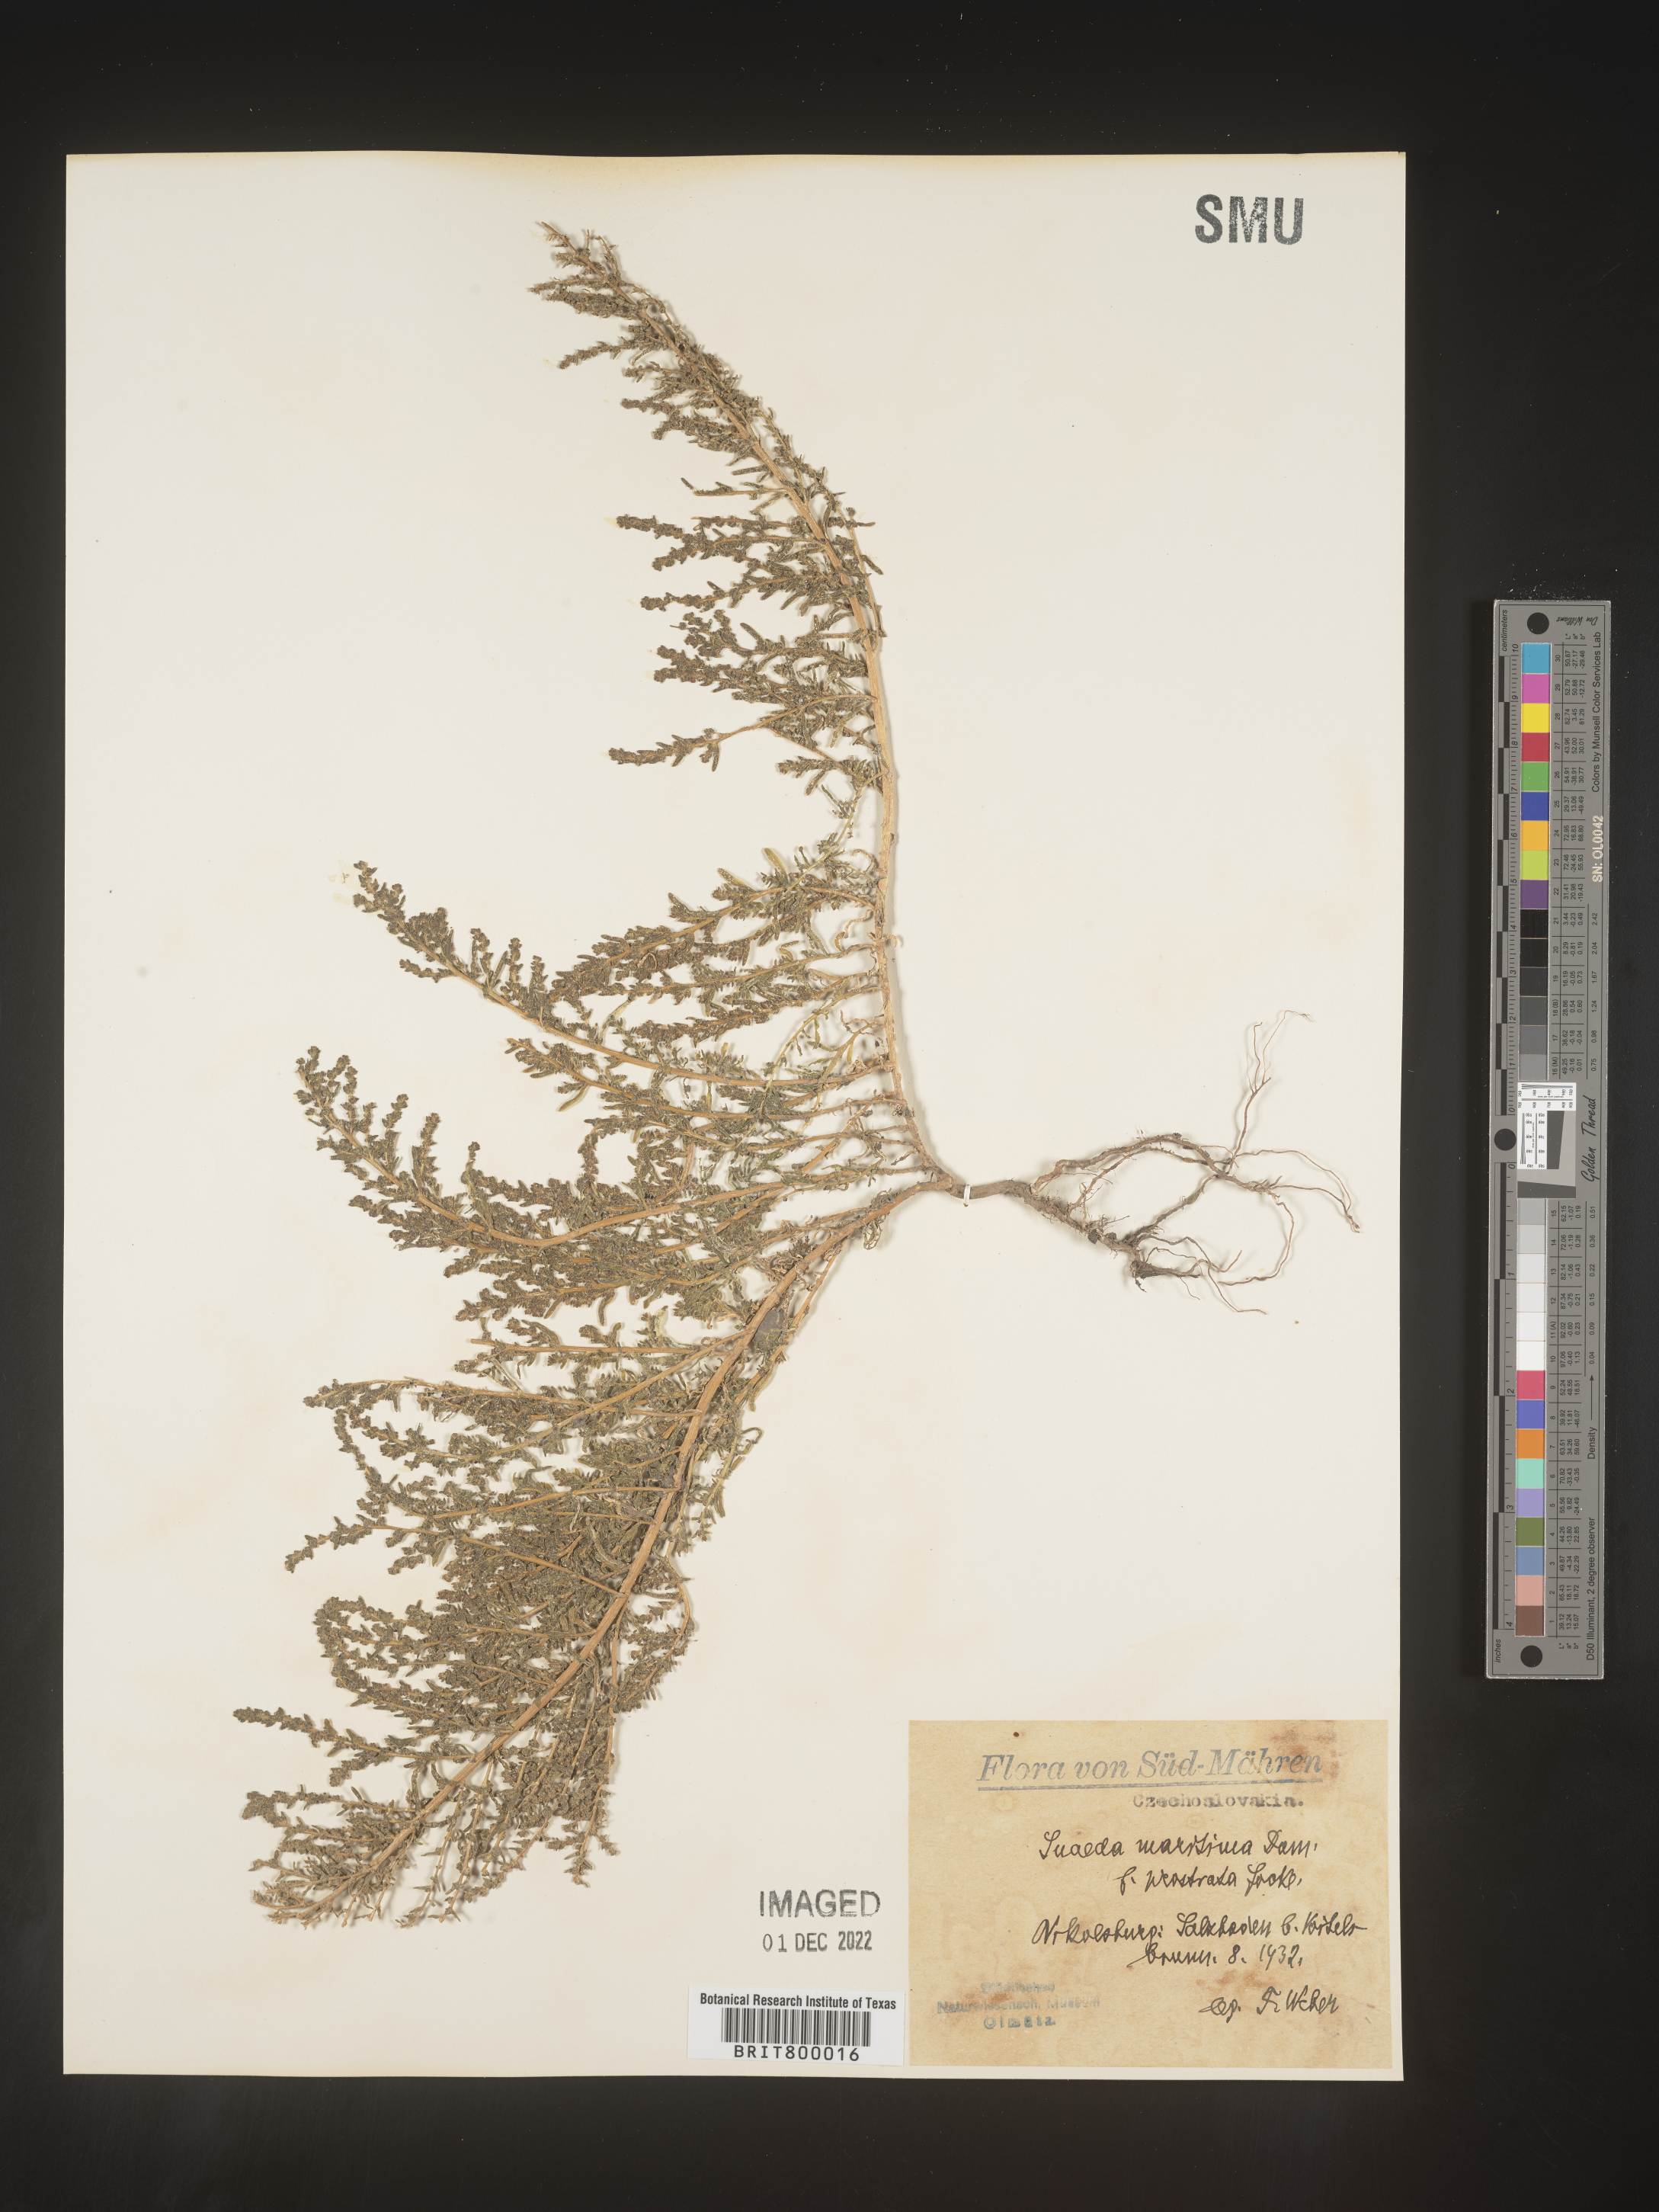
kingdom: Plantae
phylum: Tracheophyta
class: Magnoliopsida
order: Caryophyllales
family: Amaranthaceae
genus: Suaeda
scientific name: Suaeda
